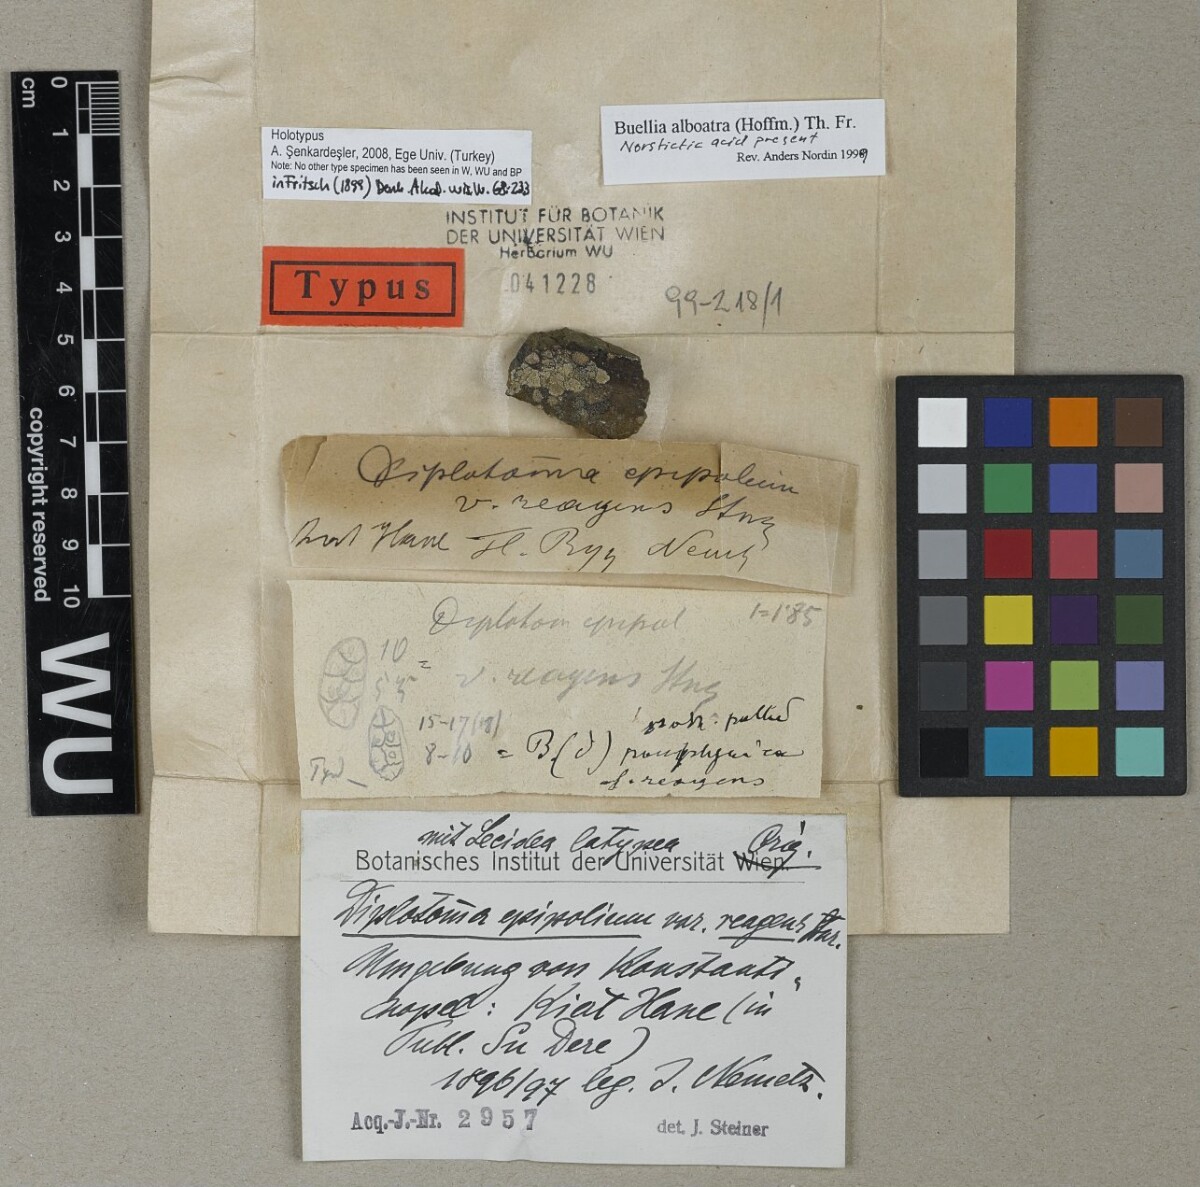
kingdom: Fungi
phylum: Ascomycota
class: Lecanoromycetes
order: Caliciales
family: Caliciaceae
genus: Diplotomma
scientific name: Diplotomma venustum
